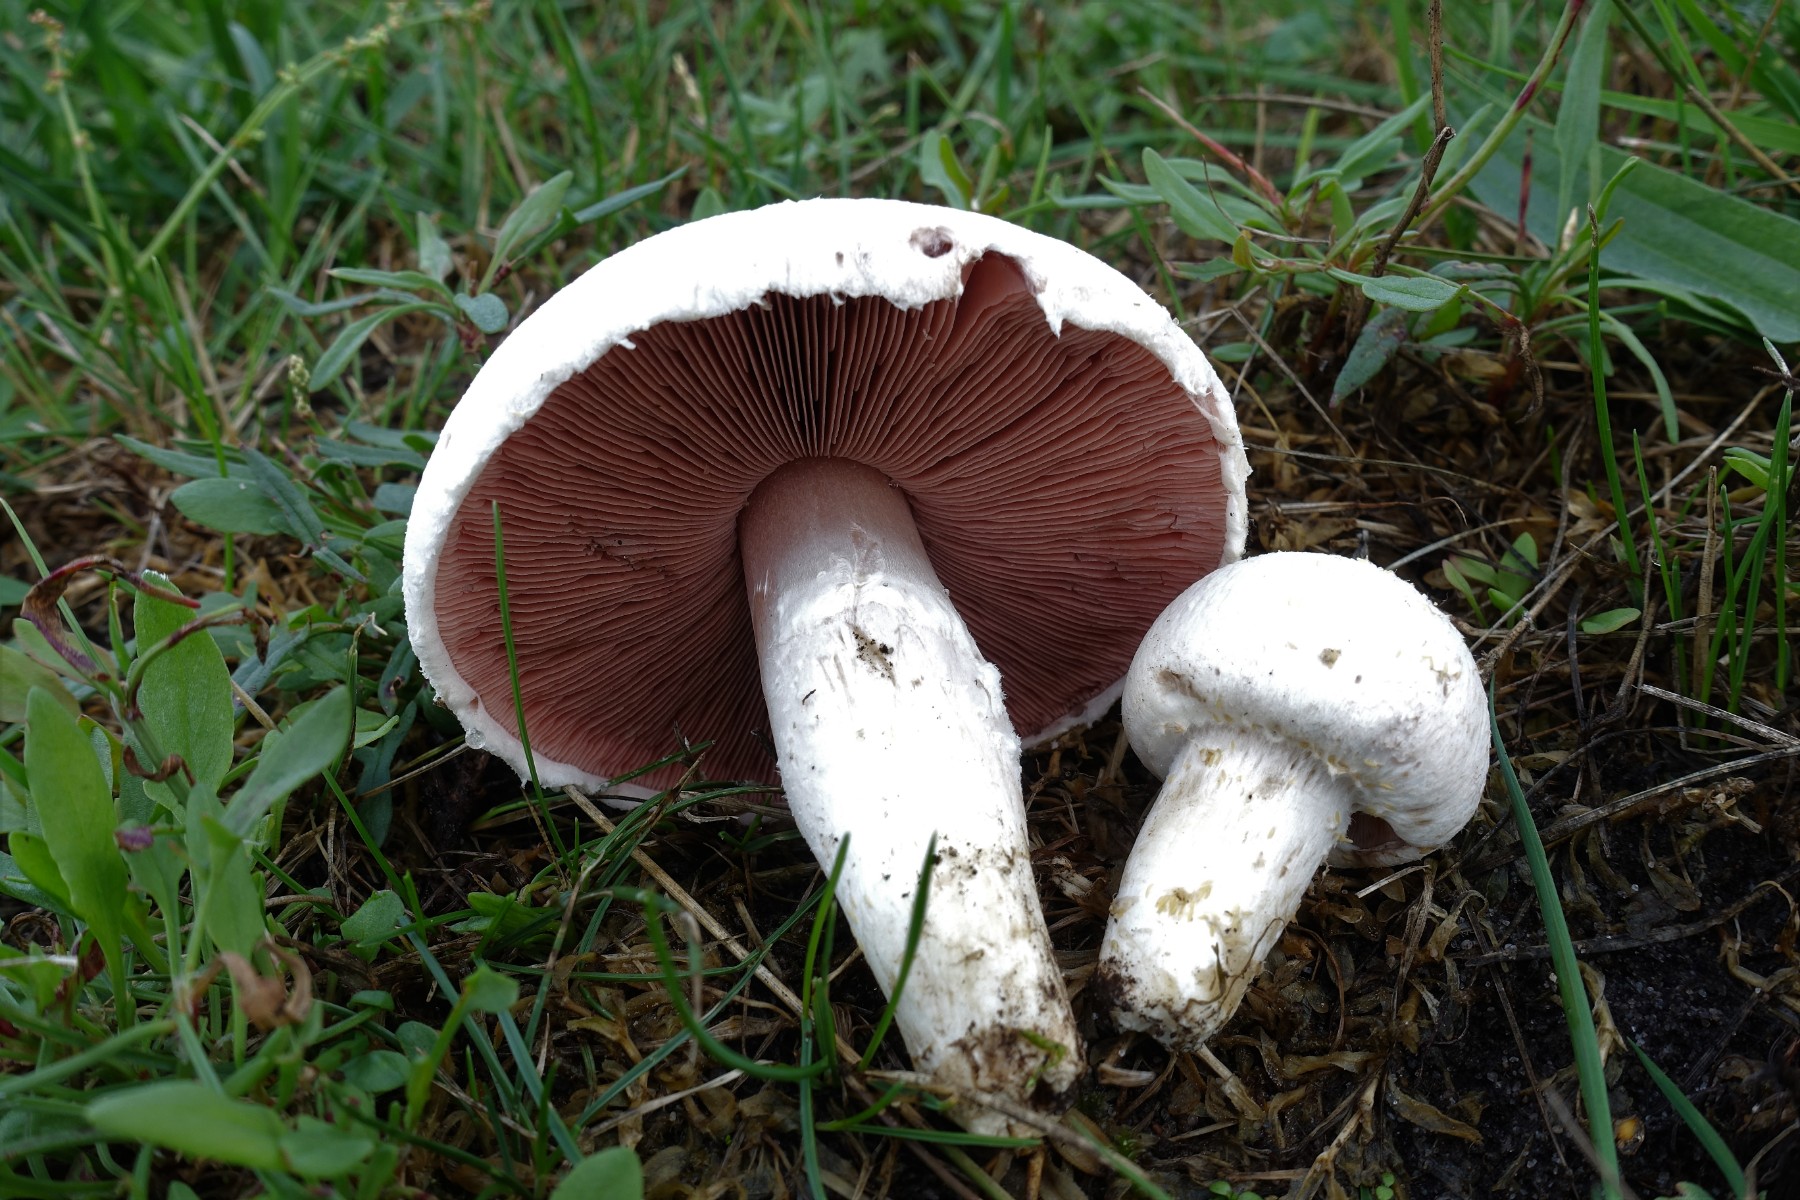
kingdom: Fungi
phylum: Basidiomycota
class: Agaricomycetes
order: Agaricales
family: Agaricaceae
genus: Agaricus
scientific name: Agaricus campestris
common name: mark-champignon
